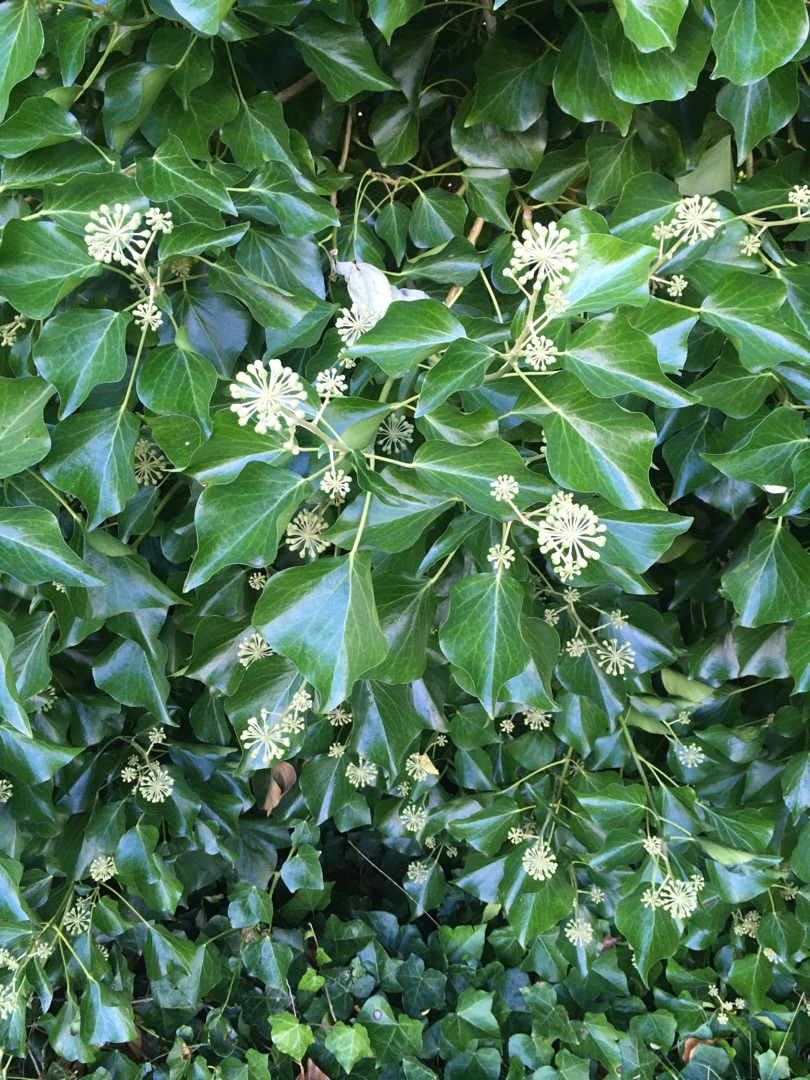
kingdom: Plantae
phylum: Tracheophyta
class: Magnoliopsida
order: Apiales
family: Araliaceae
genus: Hedera
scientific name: Hedera helix
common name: Vedbend
